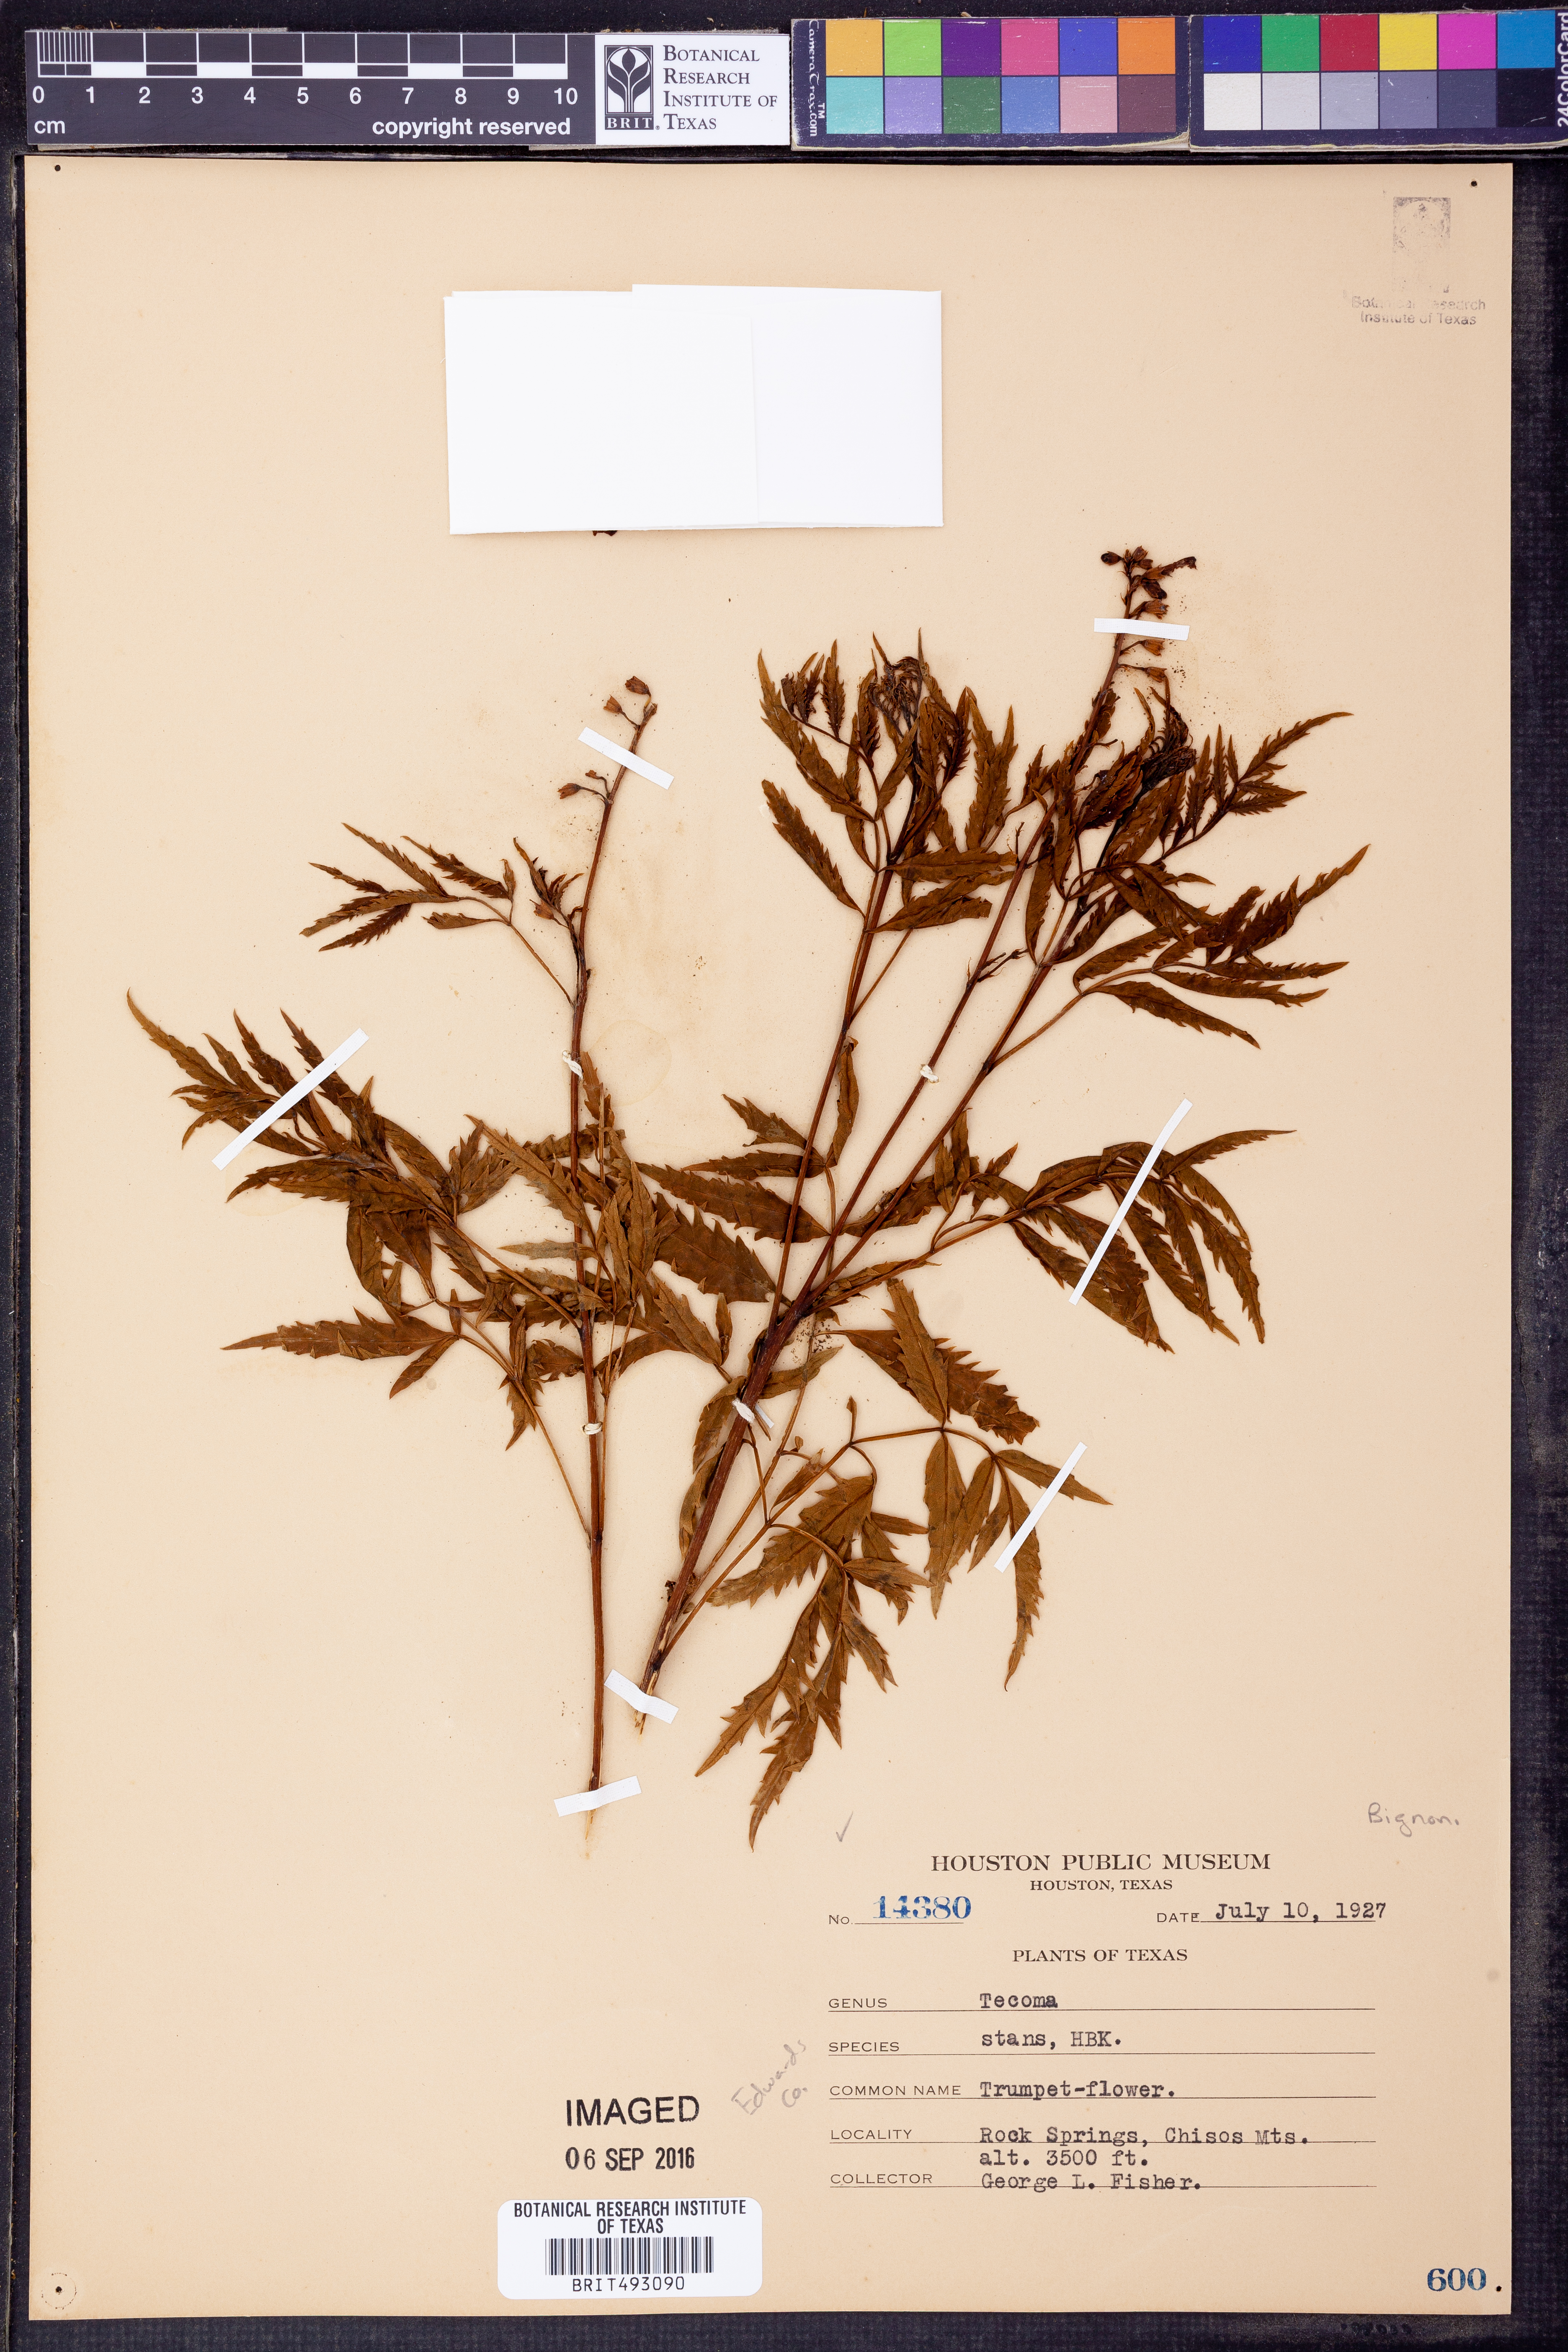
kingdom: Plantae
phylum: Tracheophyta
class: Magnoliopsida
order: Lamiales
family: Bignoniaceae
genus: Tecoma
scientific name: Tecoma stans
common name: Yellow trumpetbush
